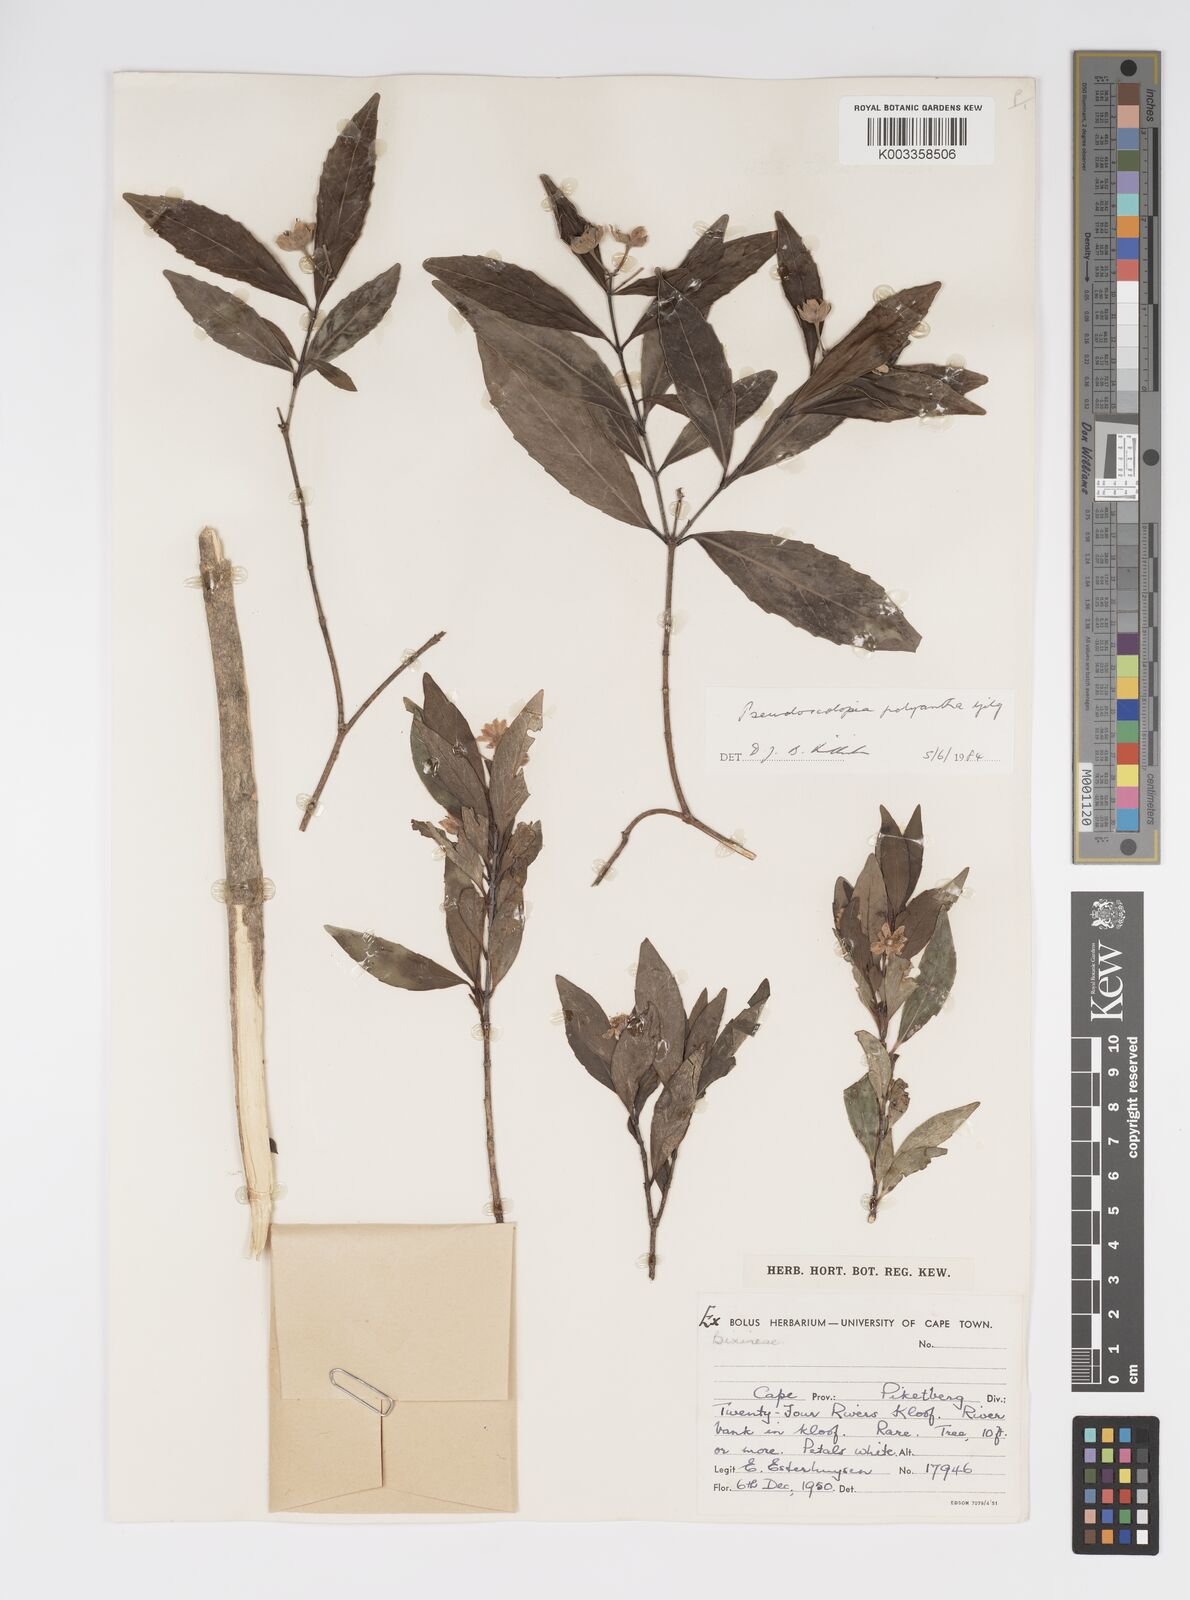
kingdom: Plantae
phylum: Tracheophyta
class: Magnoliopsida
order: Malpighiales
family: Salicaceae
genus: Pseudoscolopia
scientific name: Pseudoscolopia polyantha
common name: Sandstone red-stem
